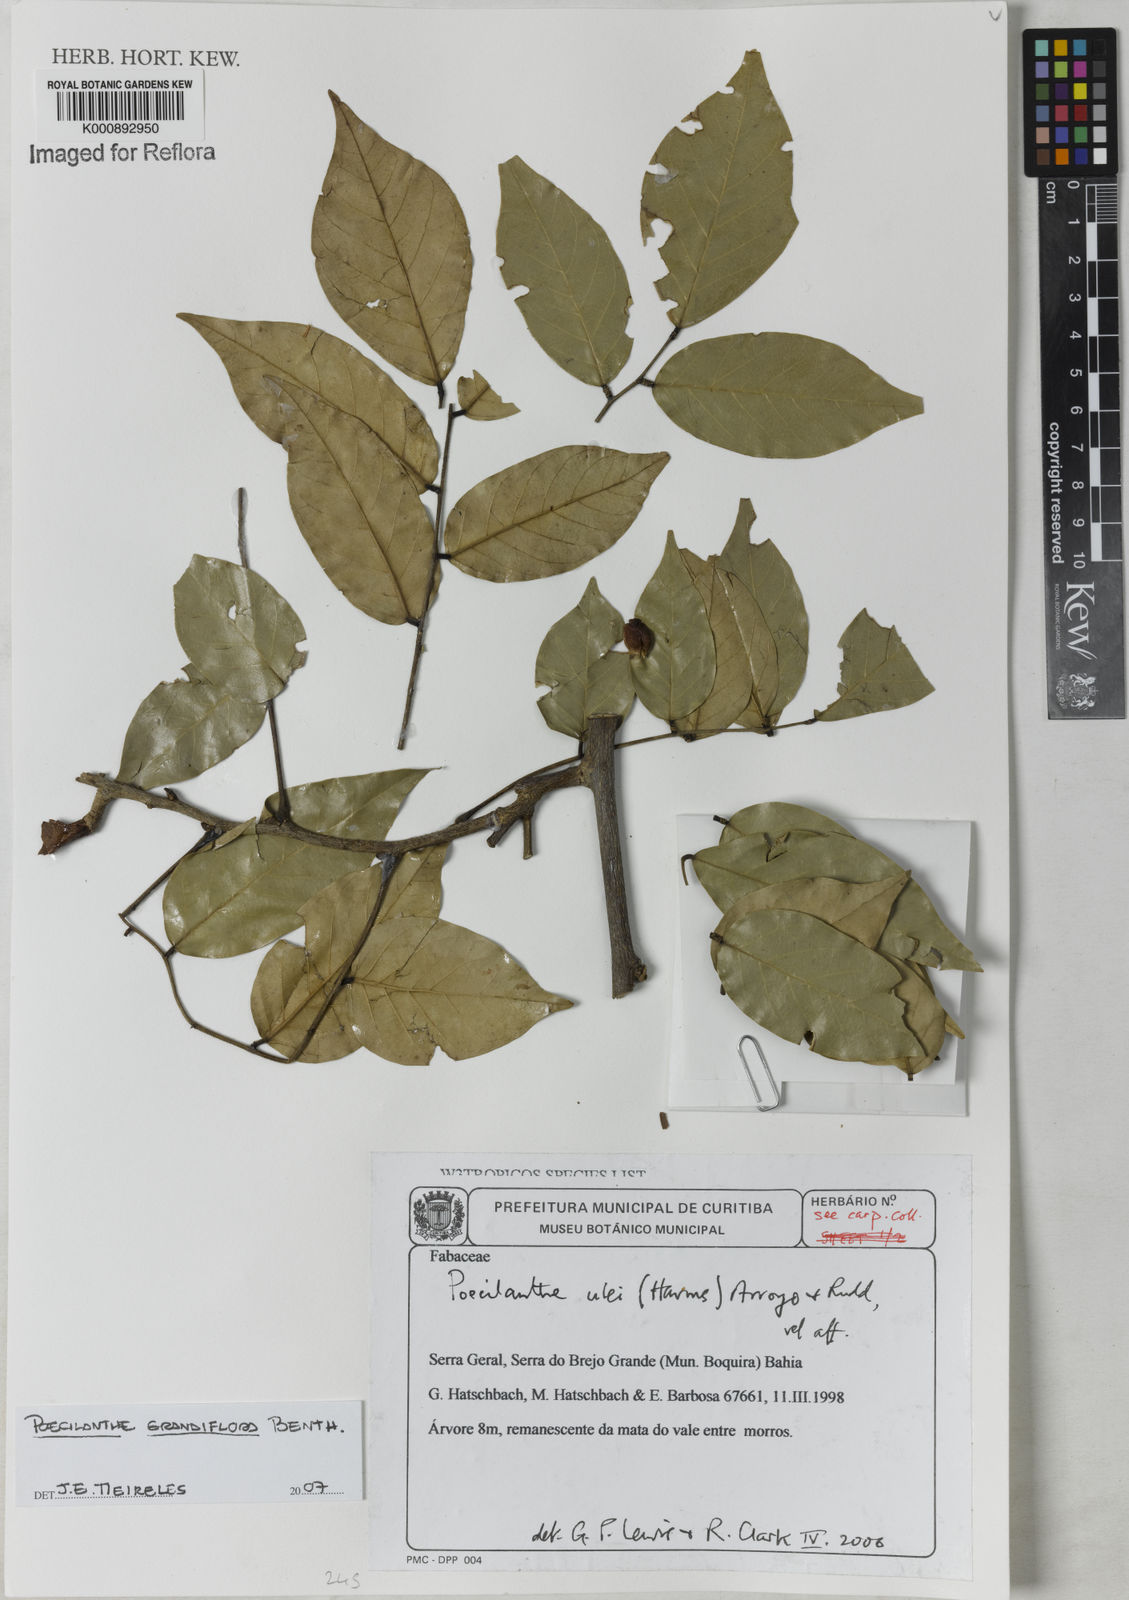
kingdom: Plantae
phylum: Tracheophyta
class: Magnoliopsida
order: Fabales
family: Fabaceae
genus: Poecilanthe
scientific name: Poecilanthe grandiflora
